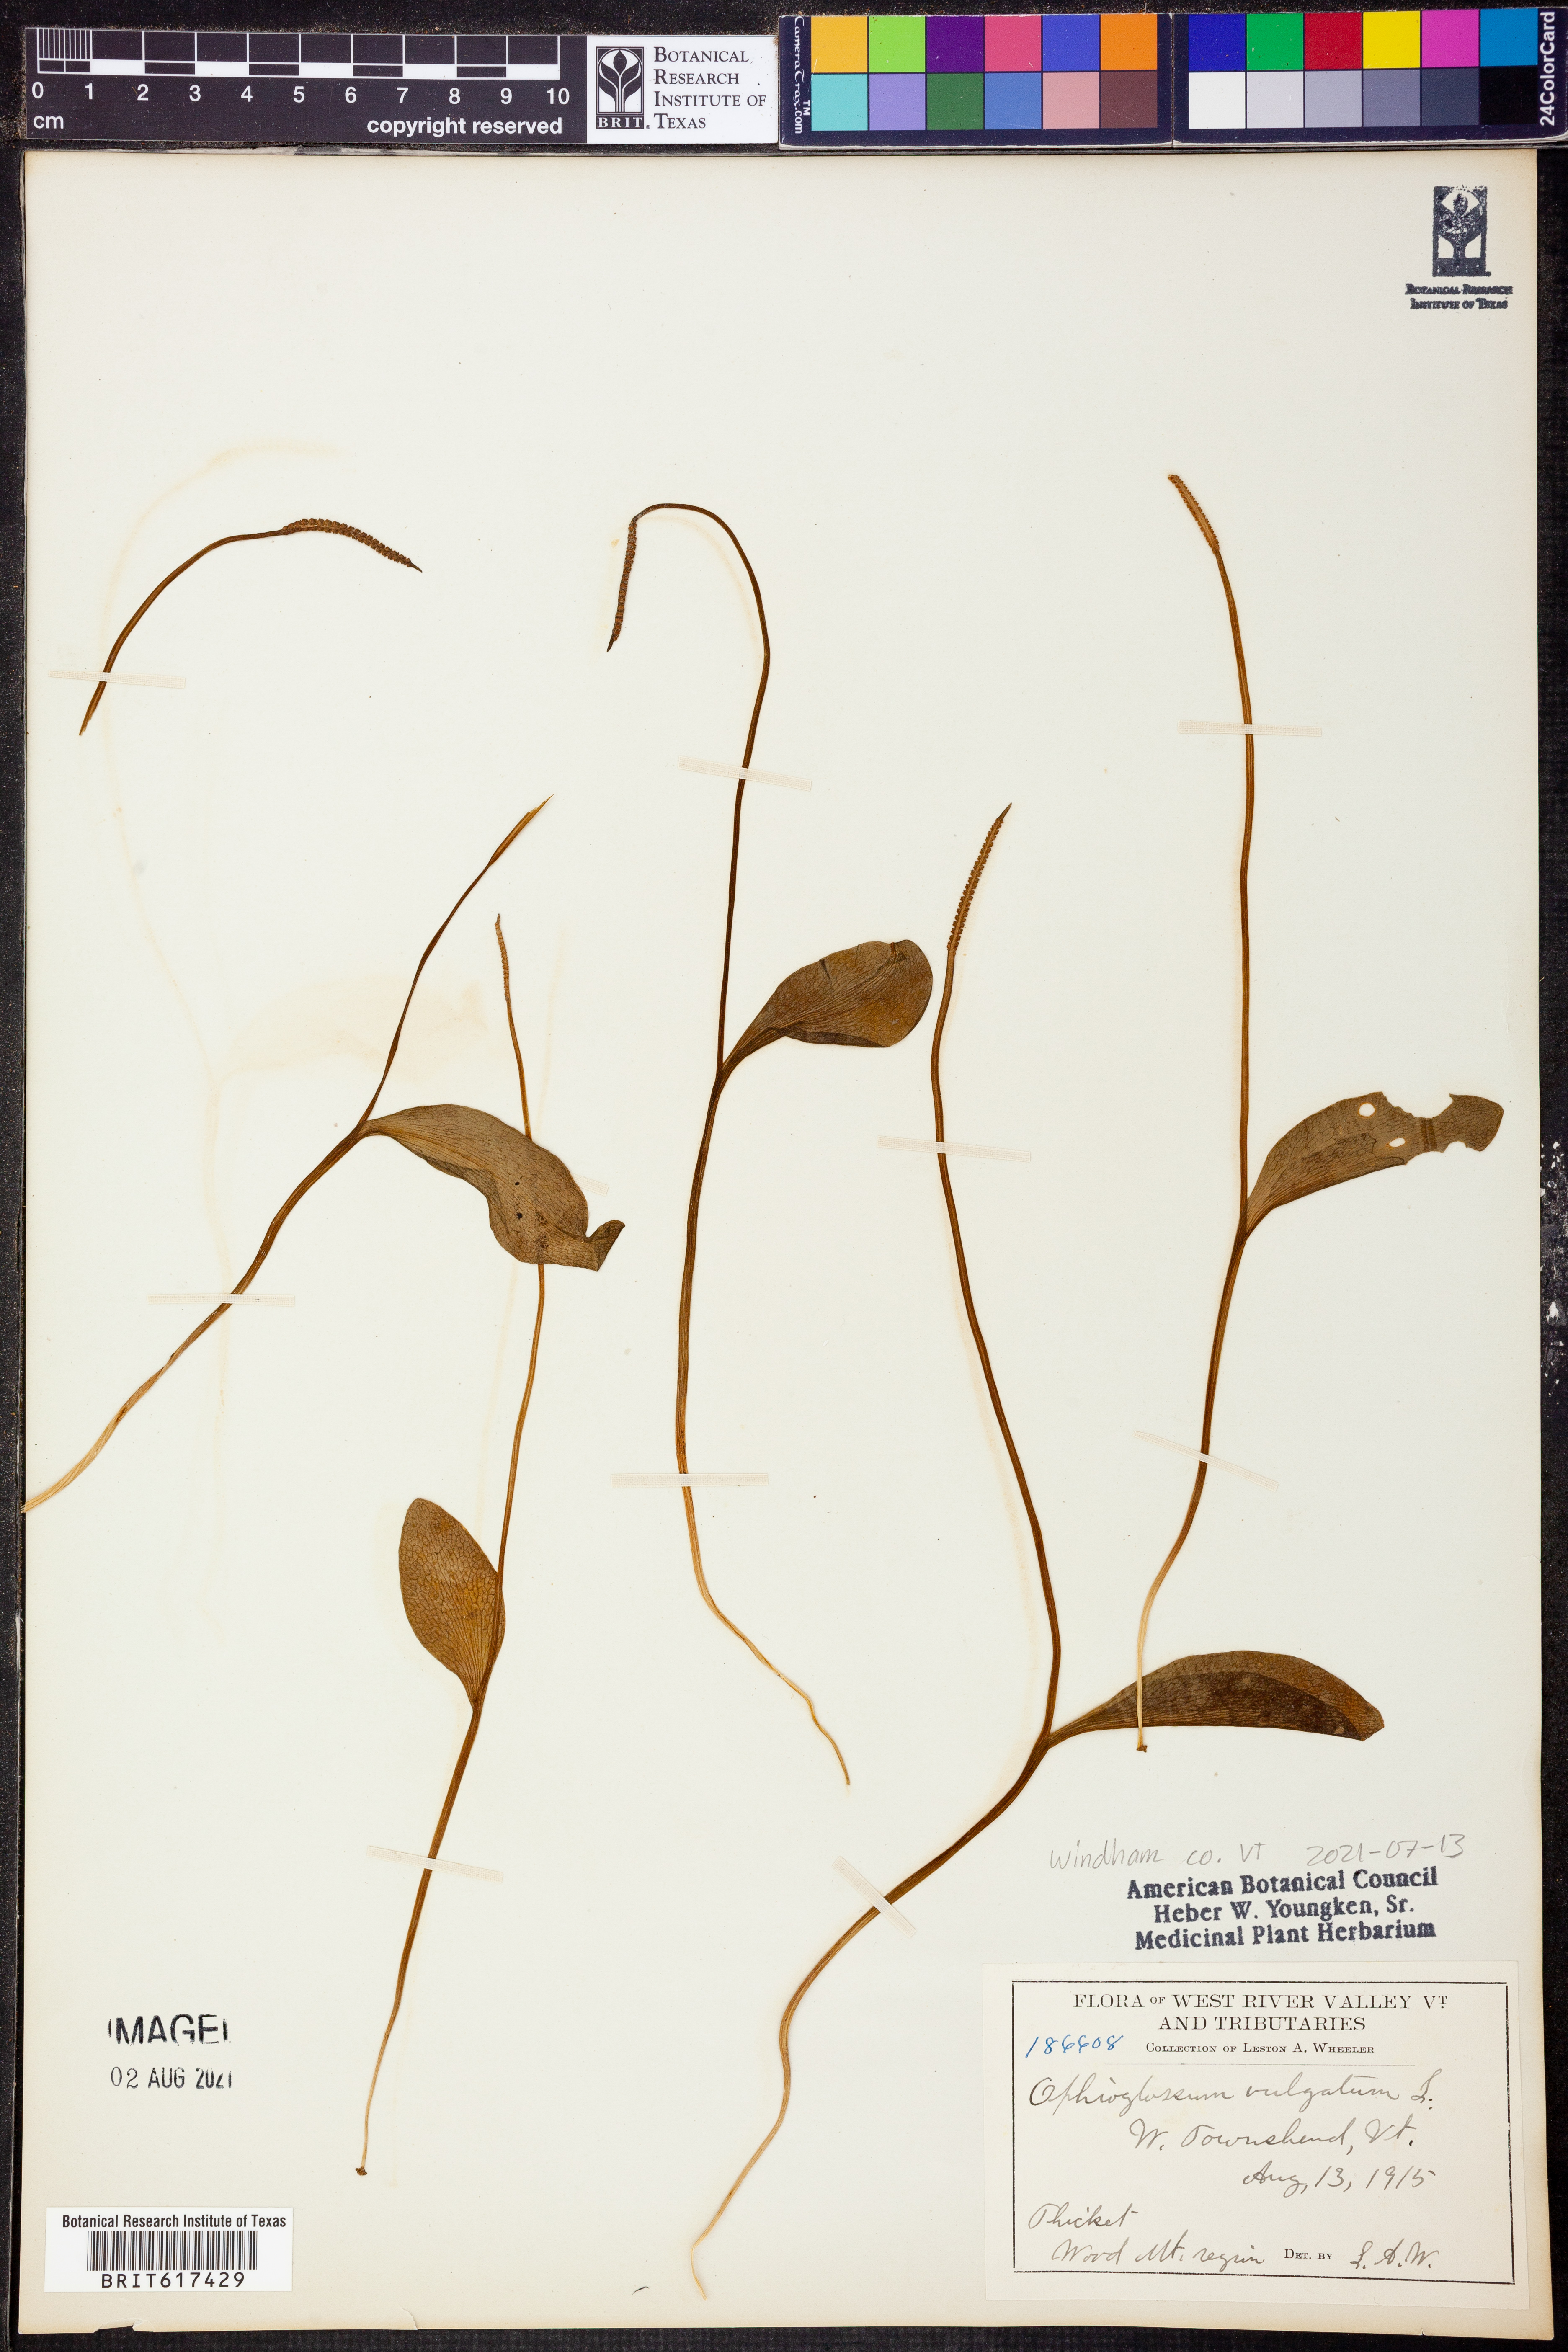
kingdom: Plantae
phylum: Tracheophyta
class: Polypodiopsida
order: Ophioglossales
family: Ophioglossaceae
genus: Ophioglossum
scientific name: Ophioglossum vulgatum
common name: Adder's-tongue
